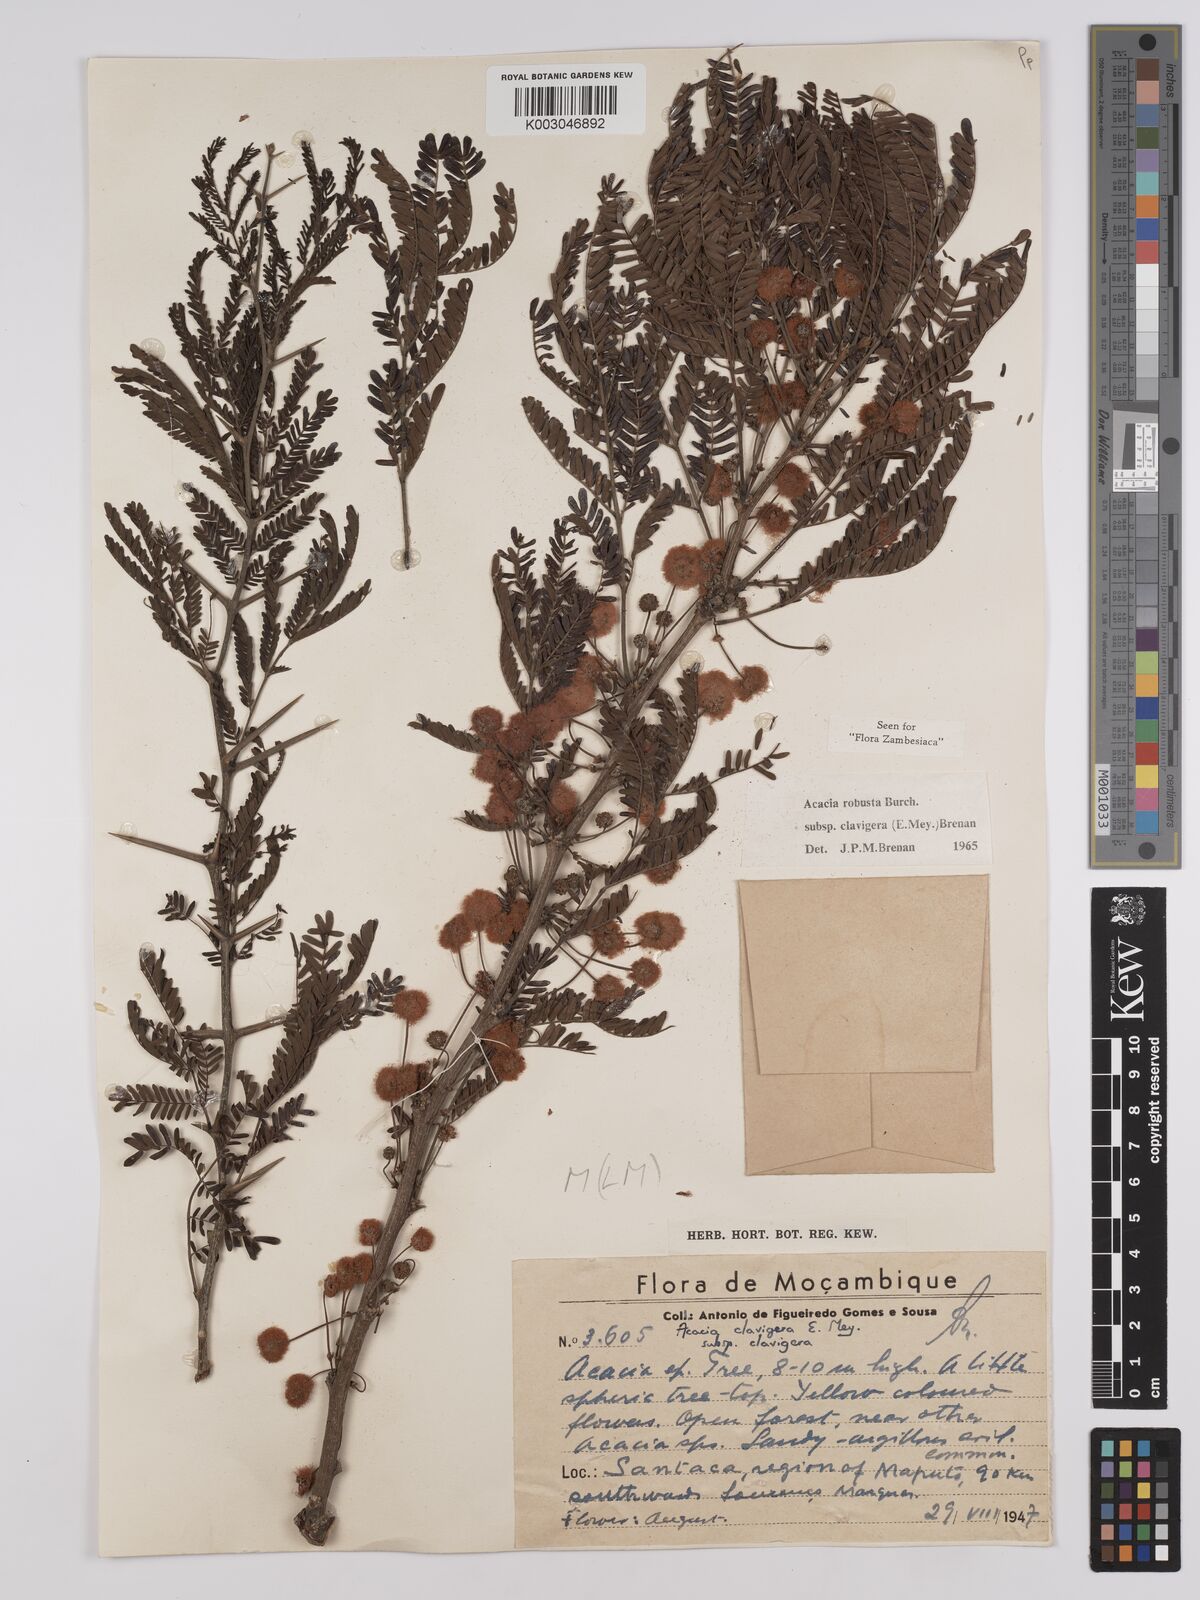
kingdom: Plantae
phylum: Tracheophyta
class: Magnoliopsida
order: Fabales
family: Fabaceae
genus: Vachellia
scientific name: Vachellia robusta
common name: Ankle thorn
